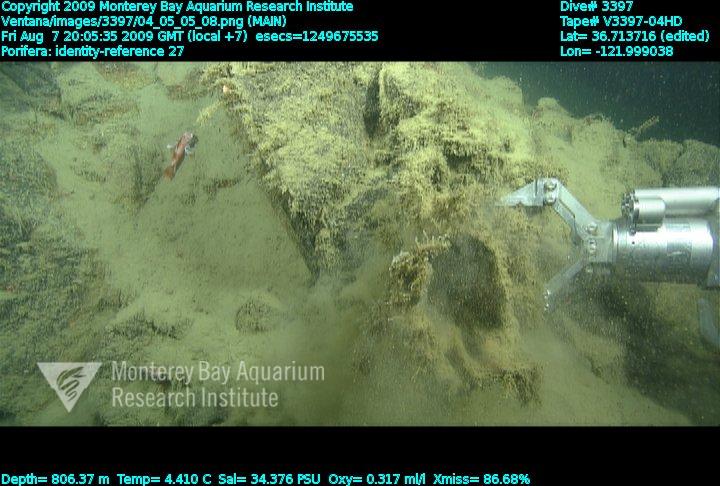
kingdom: Animalia
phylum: Porifera
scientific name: Porifera
